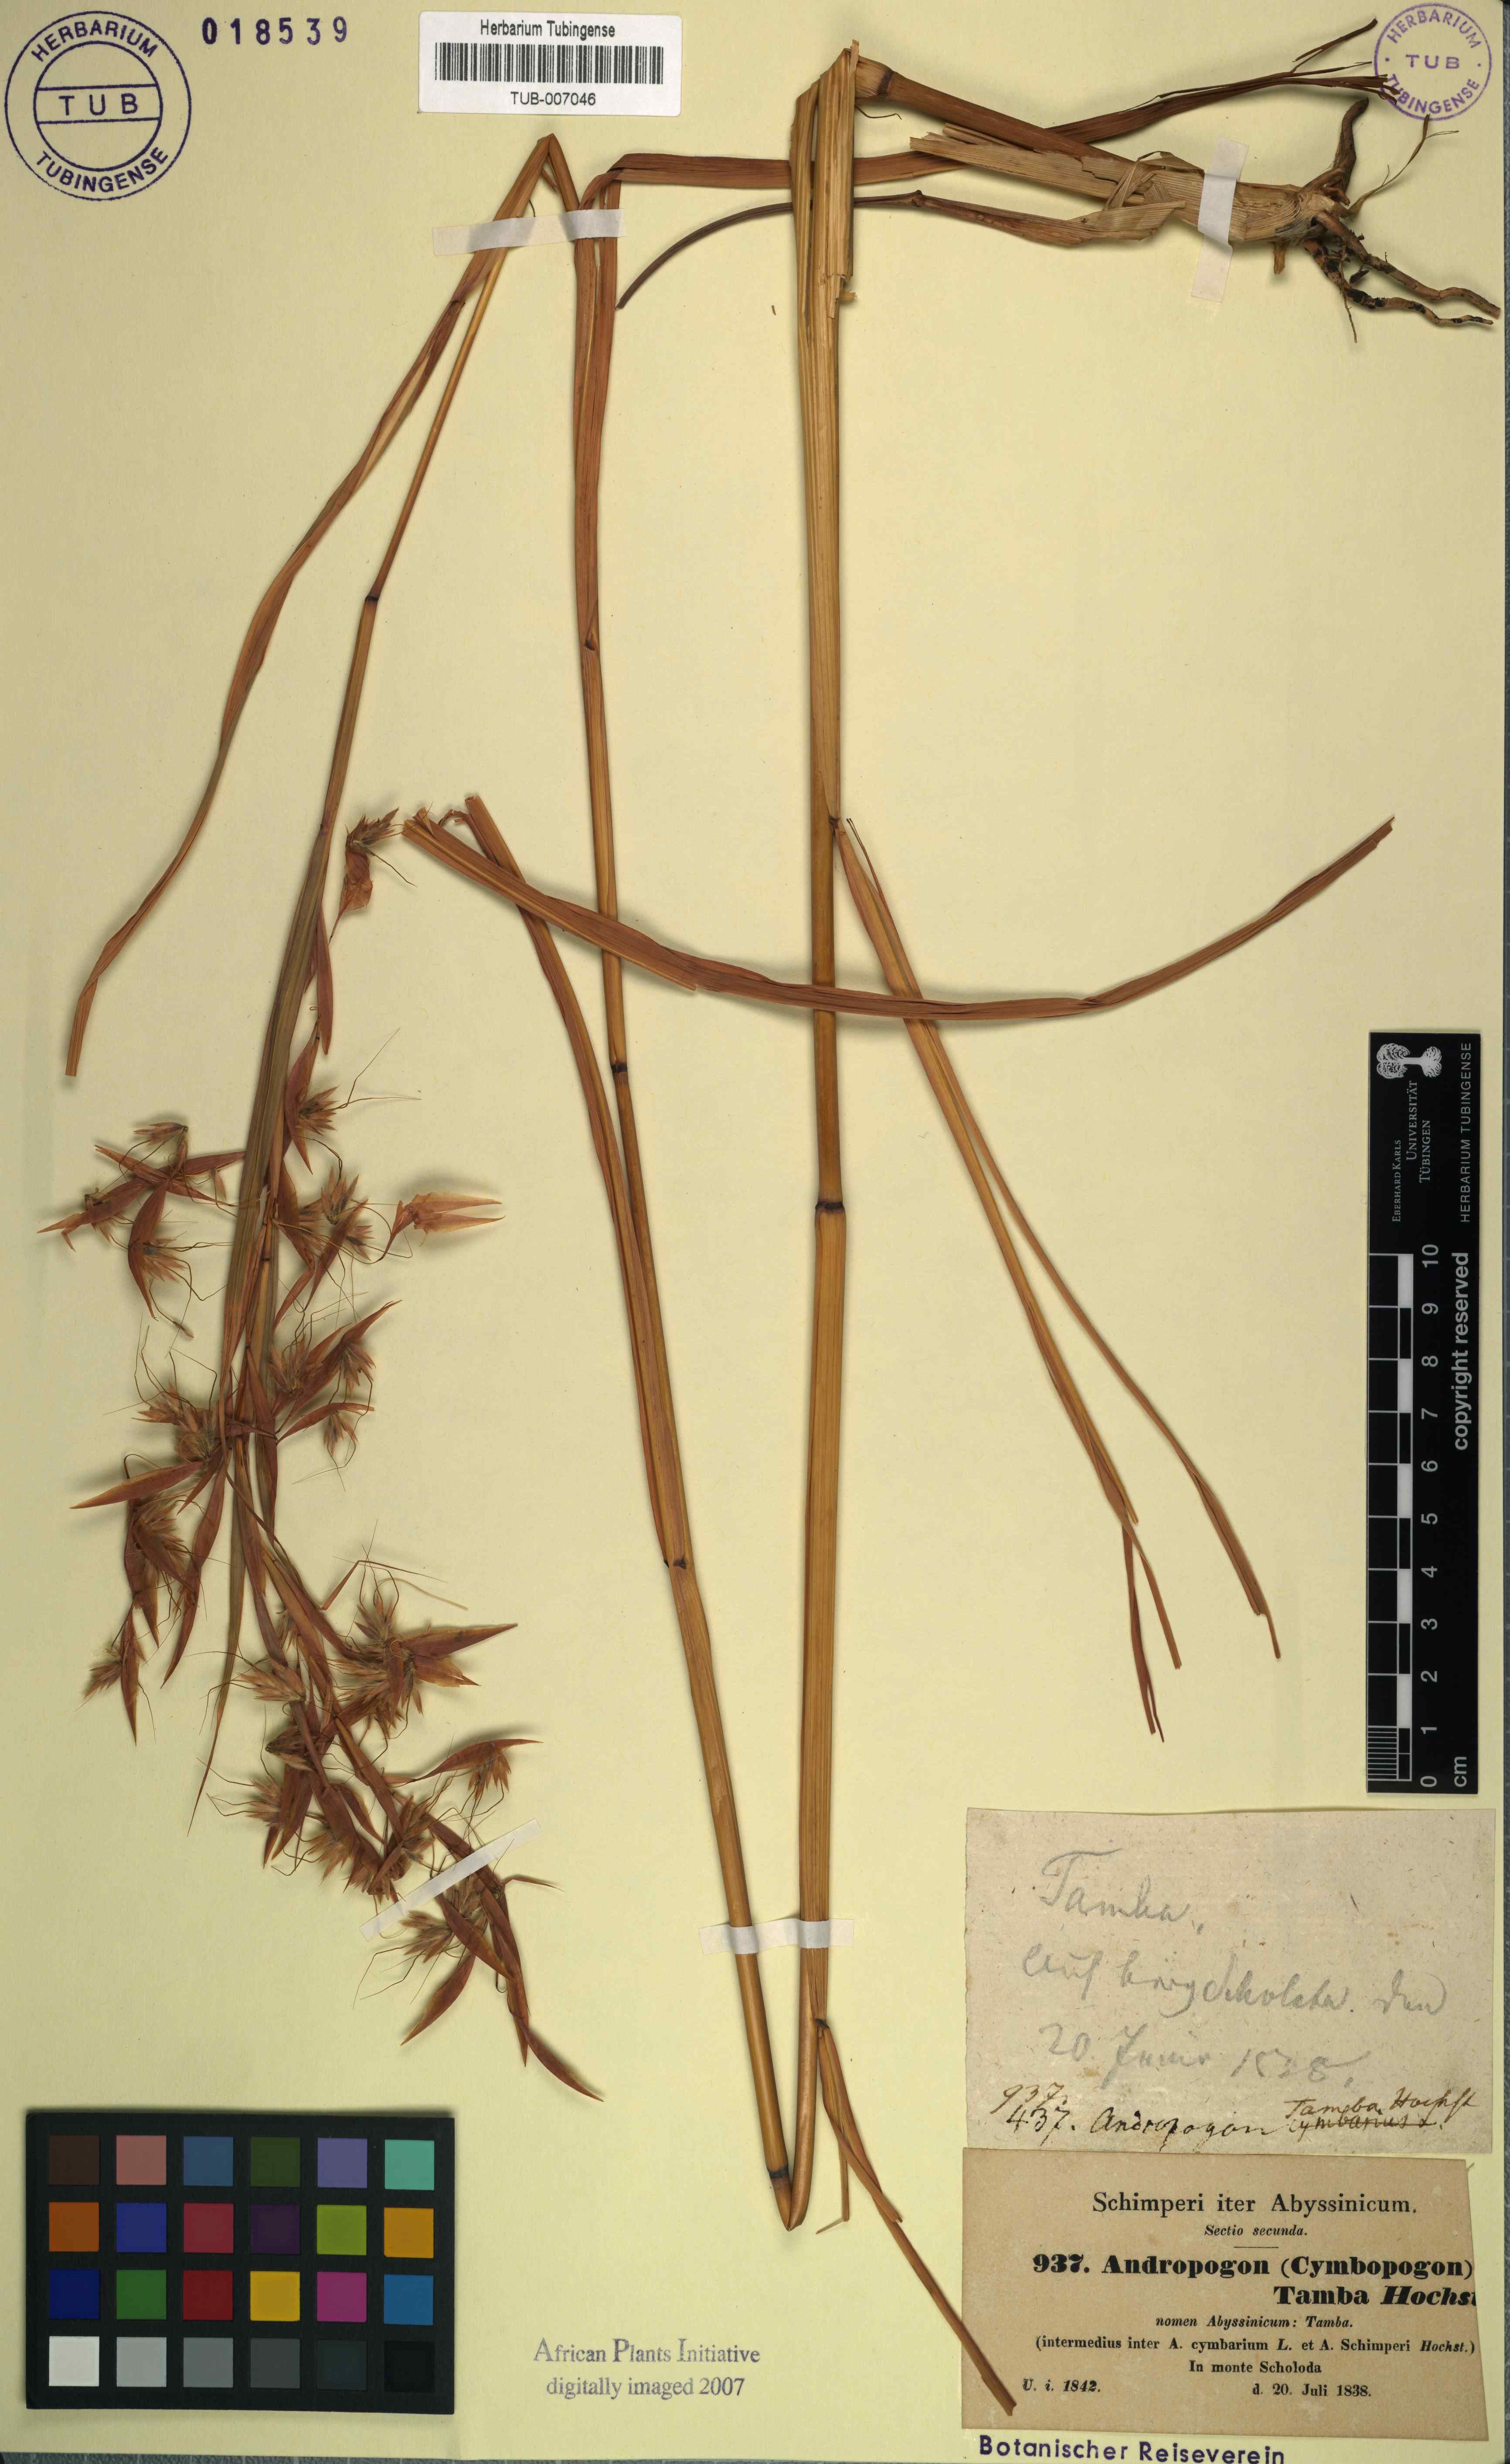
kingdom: Plantae
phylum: Tracheophyta
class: Liliopsida
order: Poales
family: Poaceae
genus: Hyparrhenia
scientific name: Hyparrhenia cymbaria
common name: Boat thatching grass
